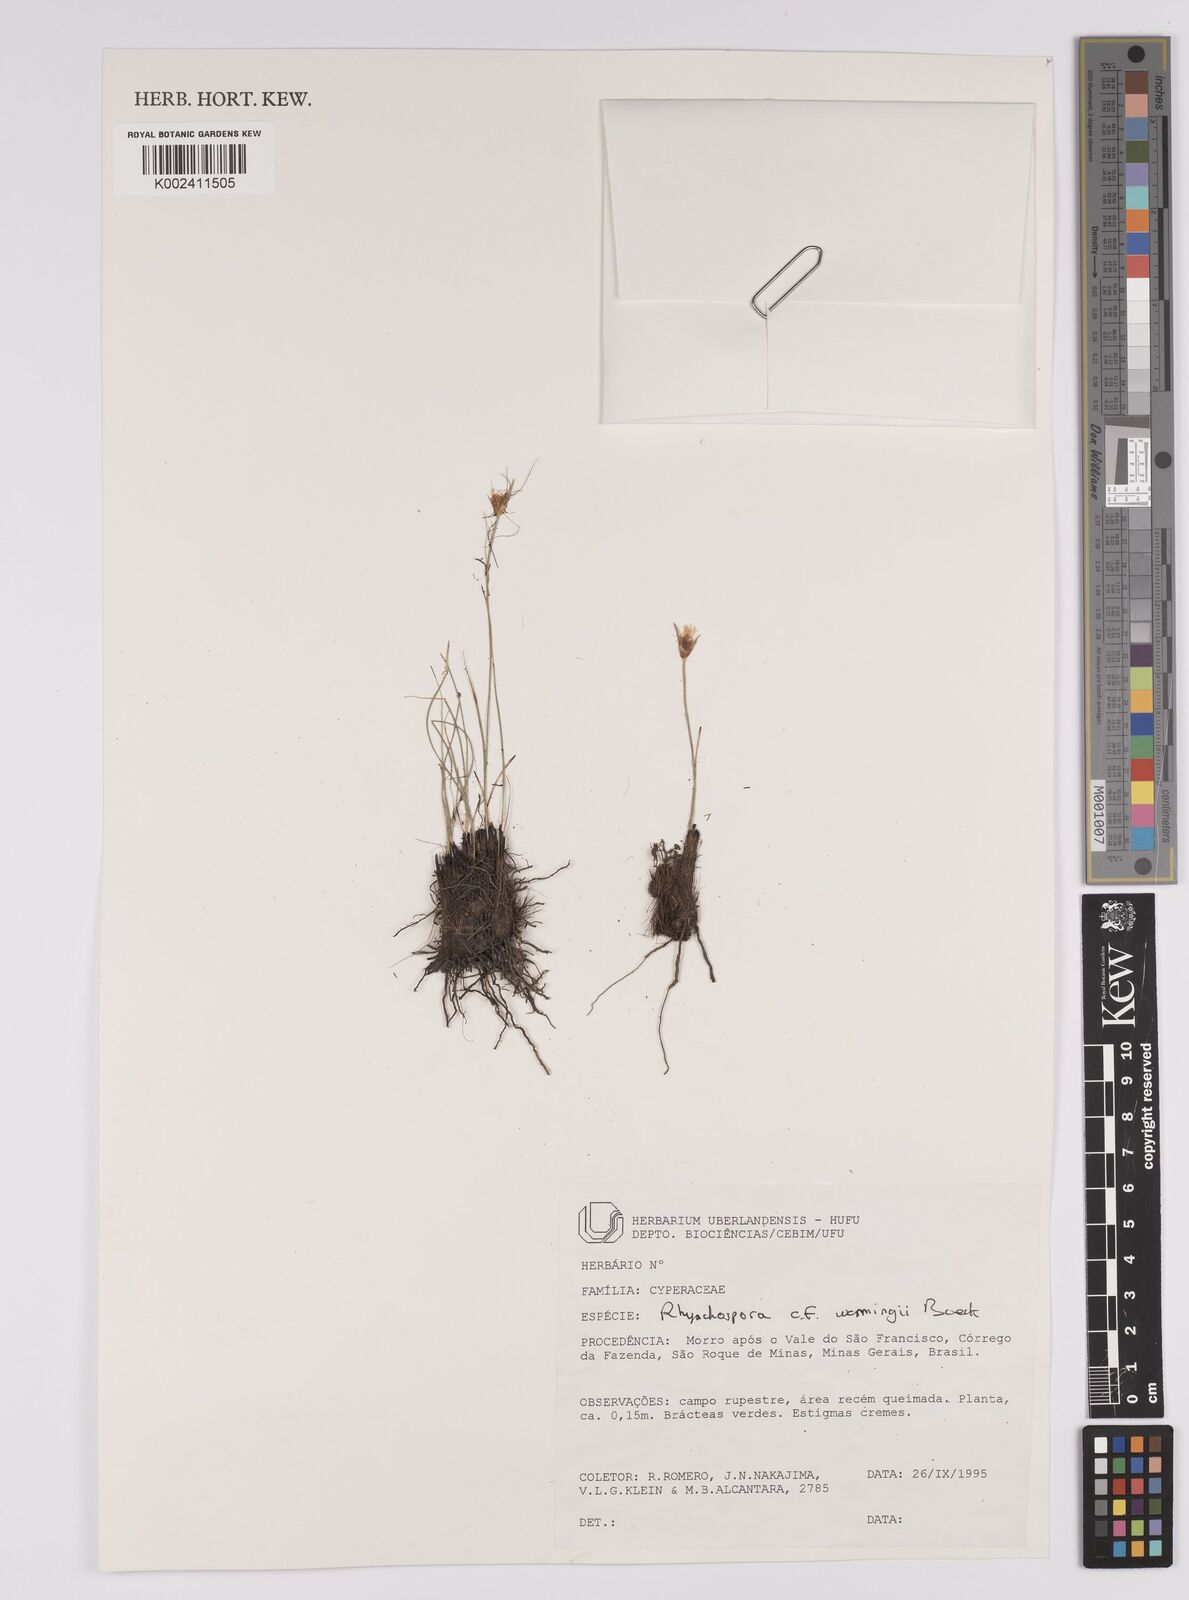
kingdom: Plantae
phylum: Tracheophyta
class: Liliopsida
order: Poales
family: Cyperaceae
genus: Rhynchospora
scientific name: Rhynchospora warmingii
